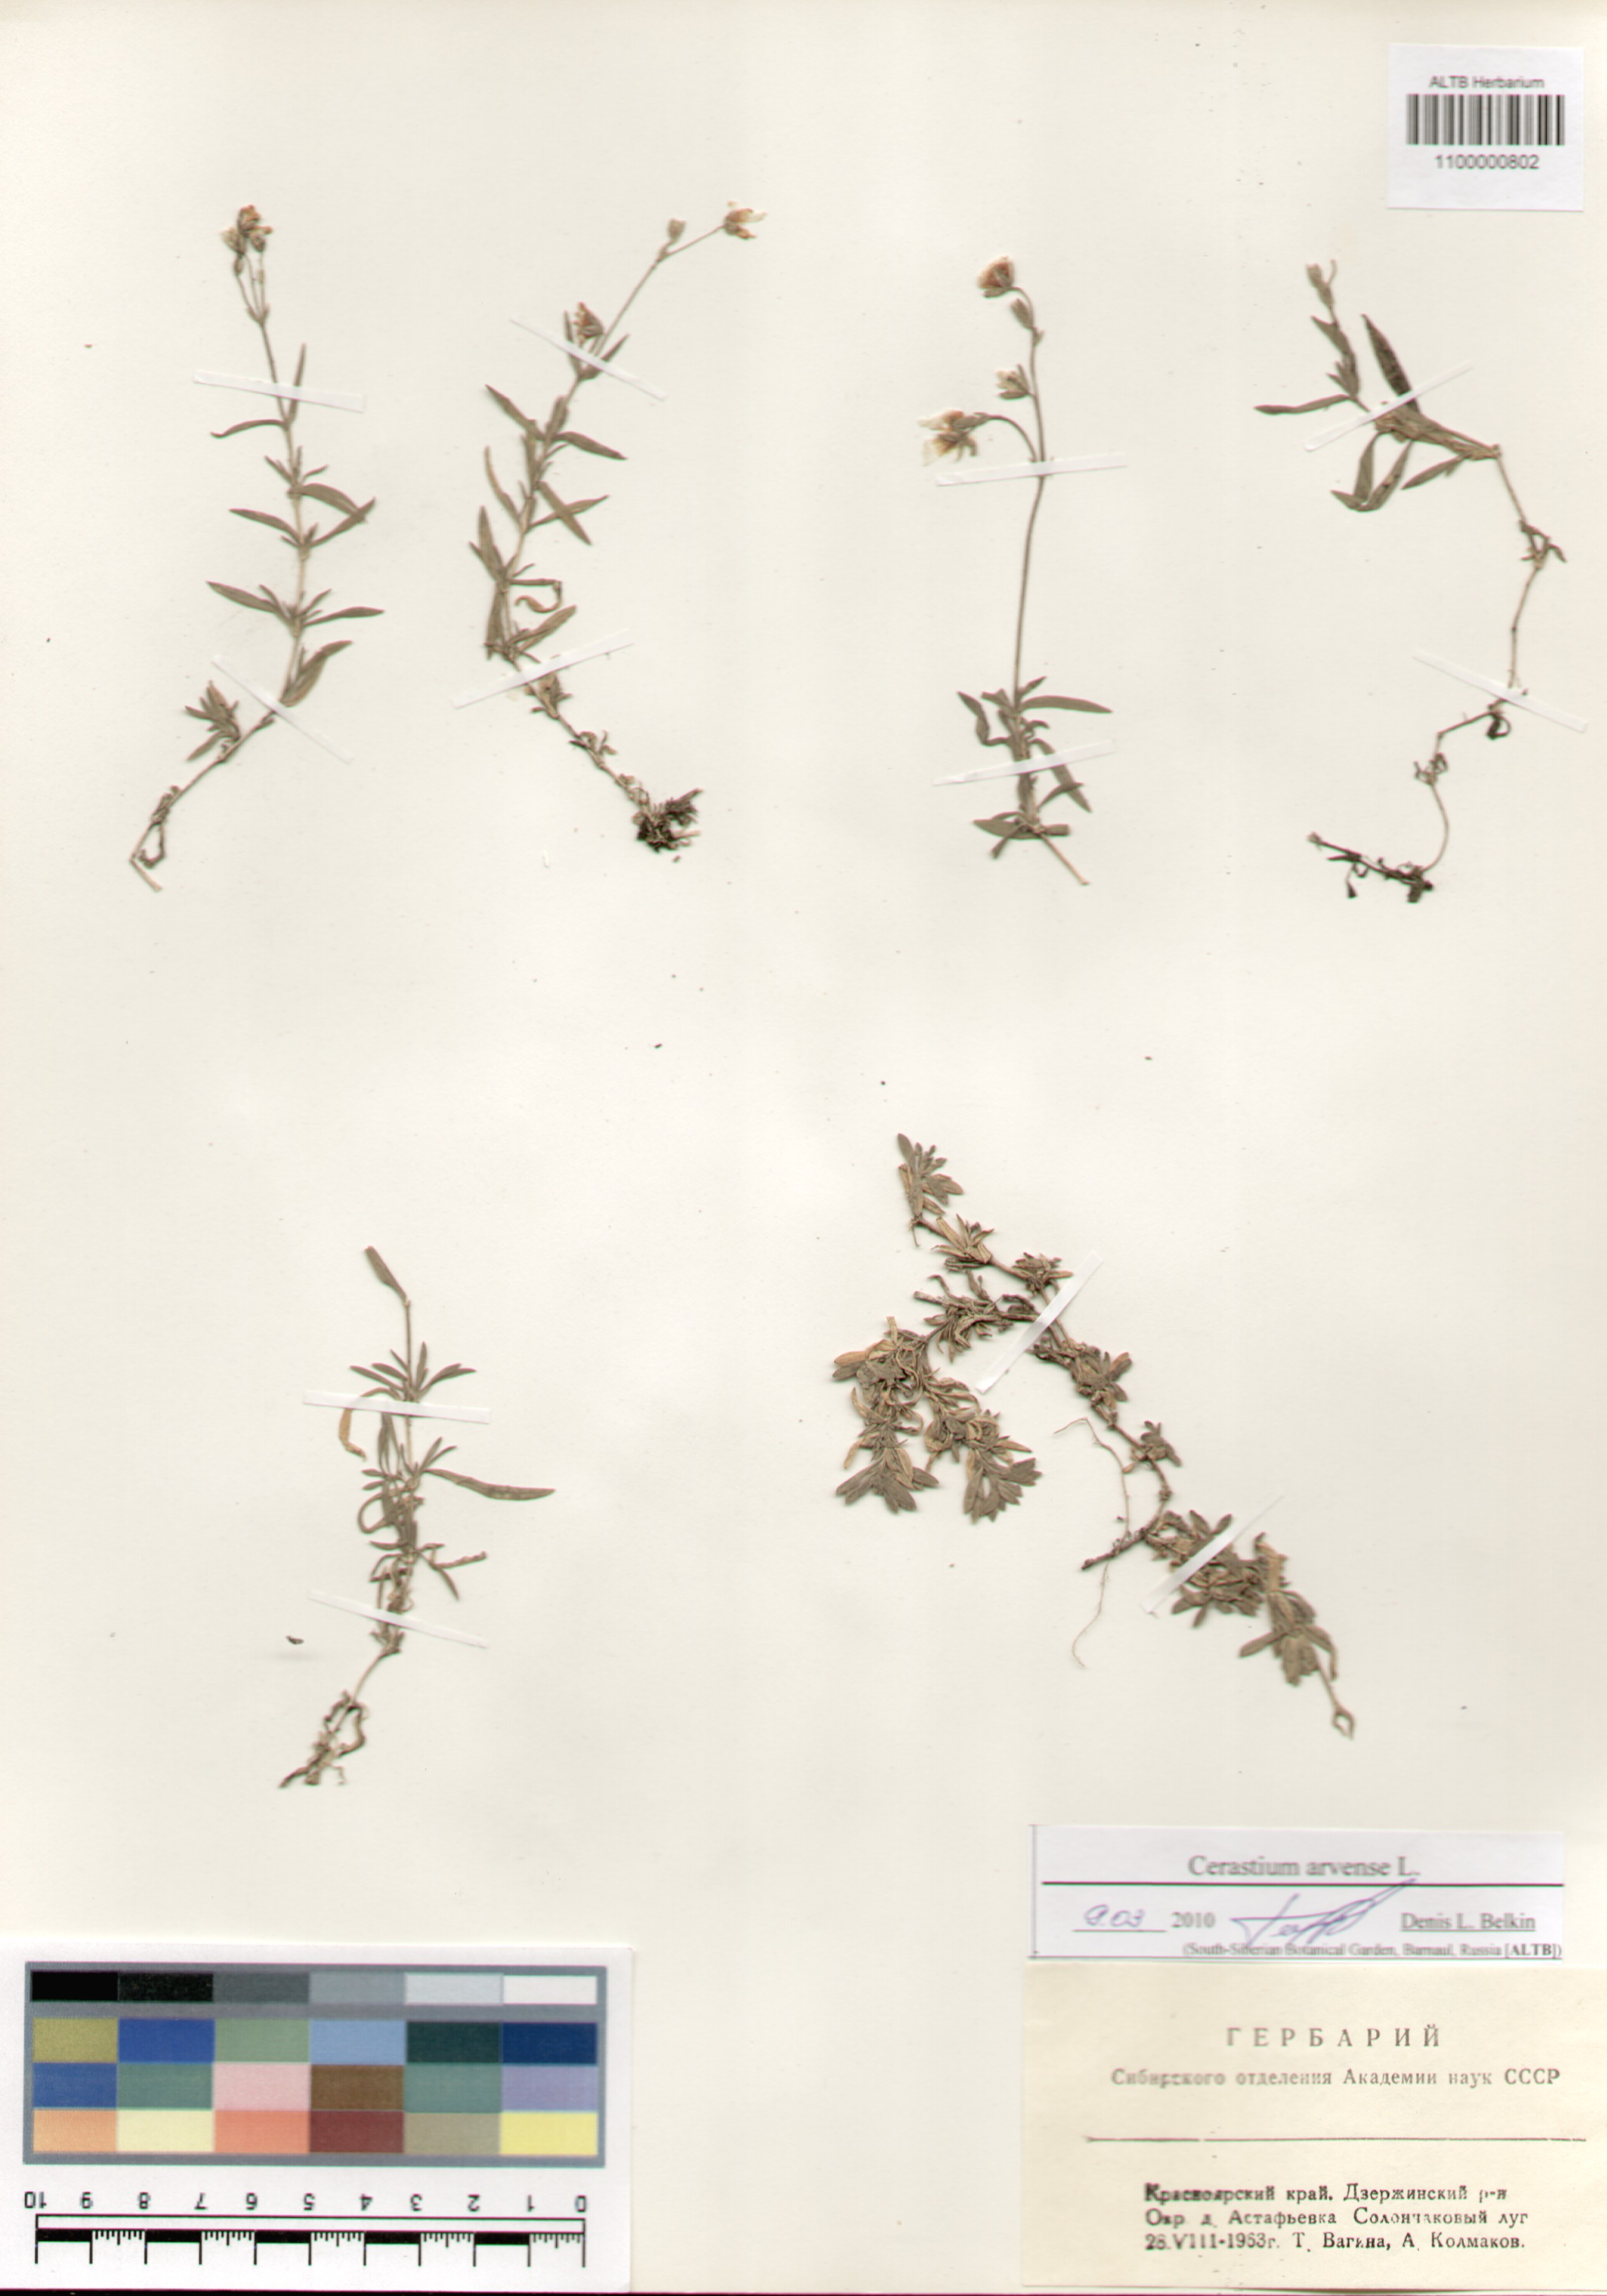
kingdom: Plantae
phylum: Tracheophyta
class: Magnoliopsida
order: Caryophyllales
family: Caryophyllaceae
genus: Cerastium
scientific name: Cerastium arvense
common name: Field mouse-ear
